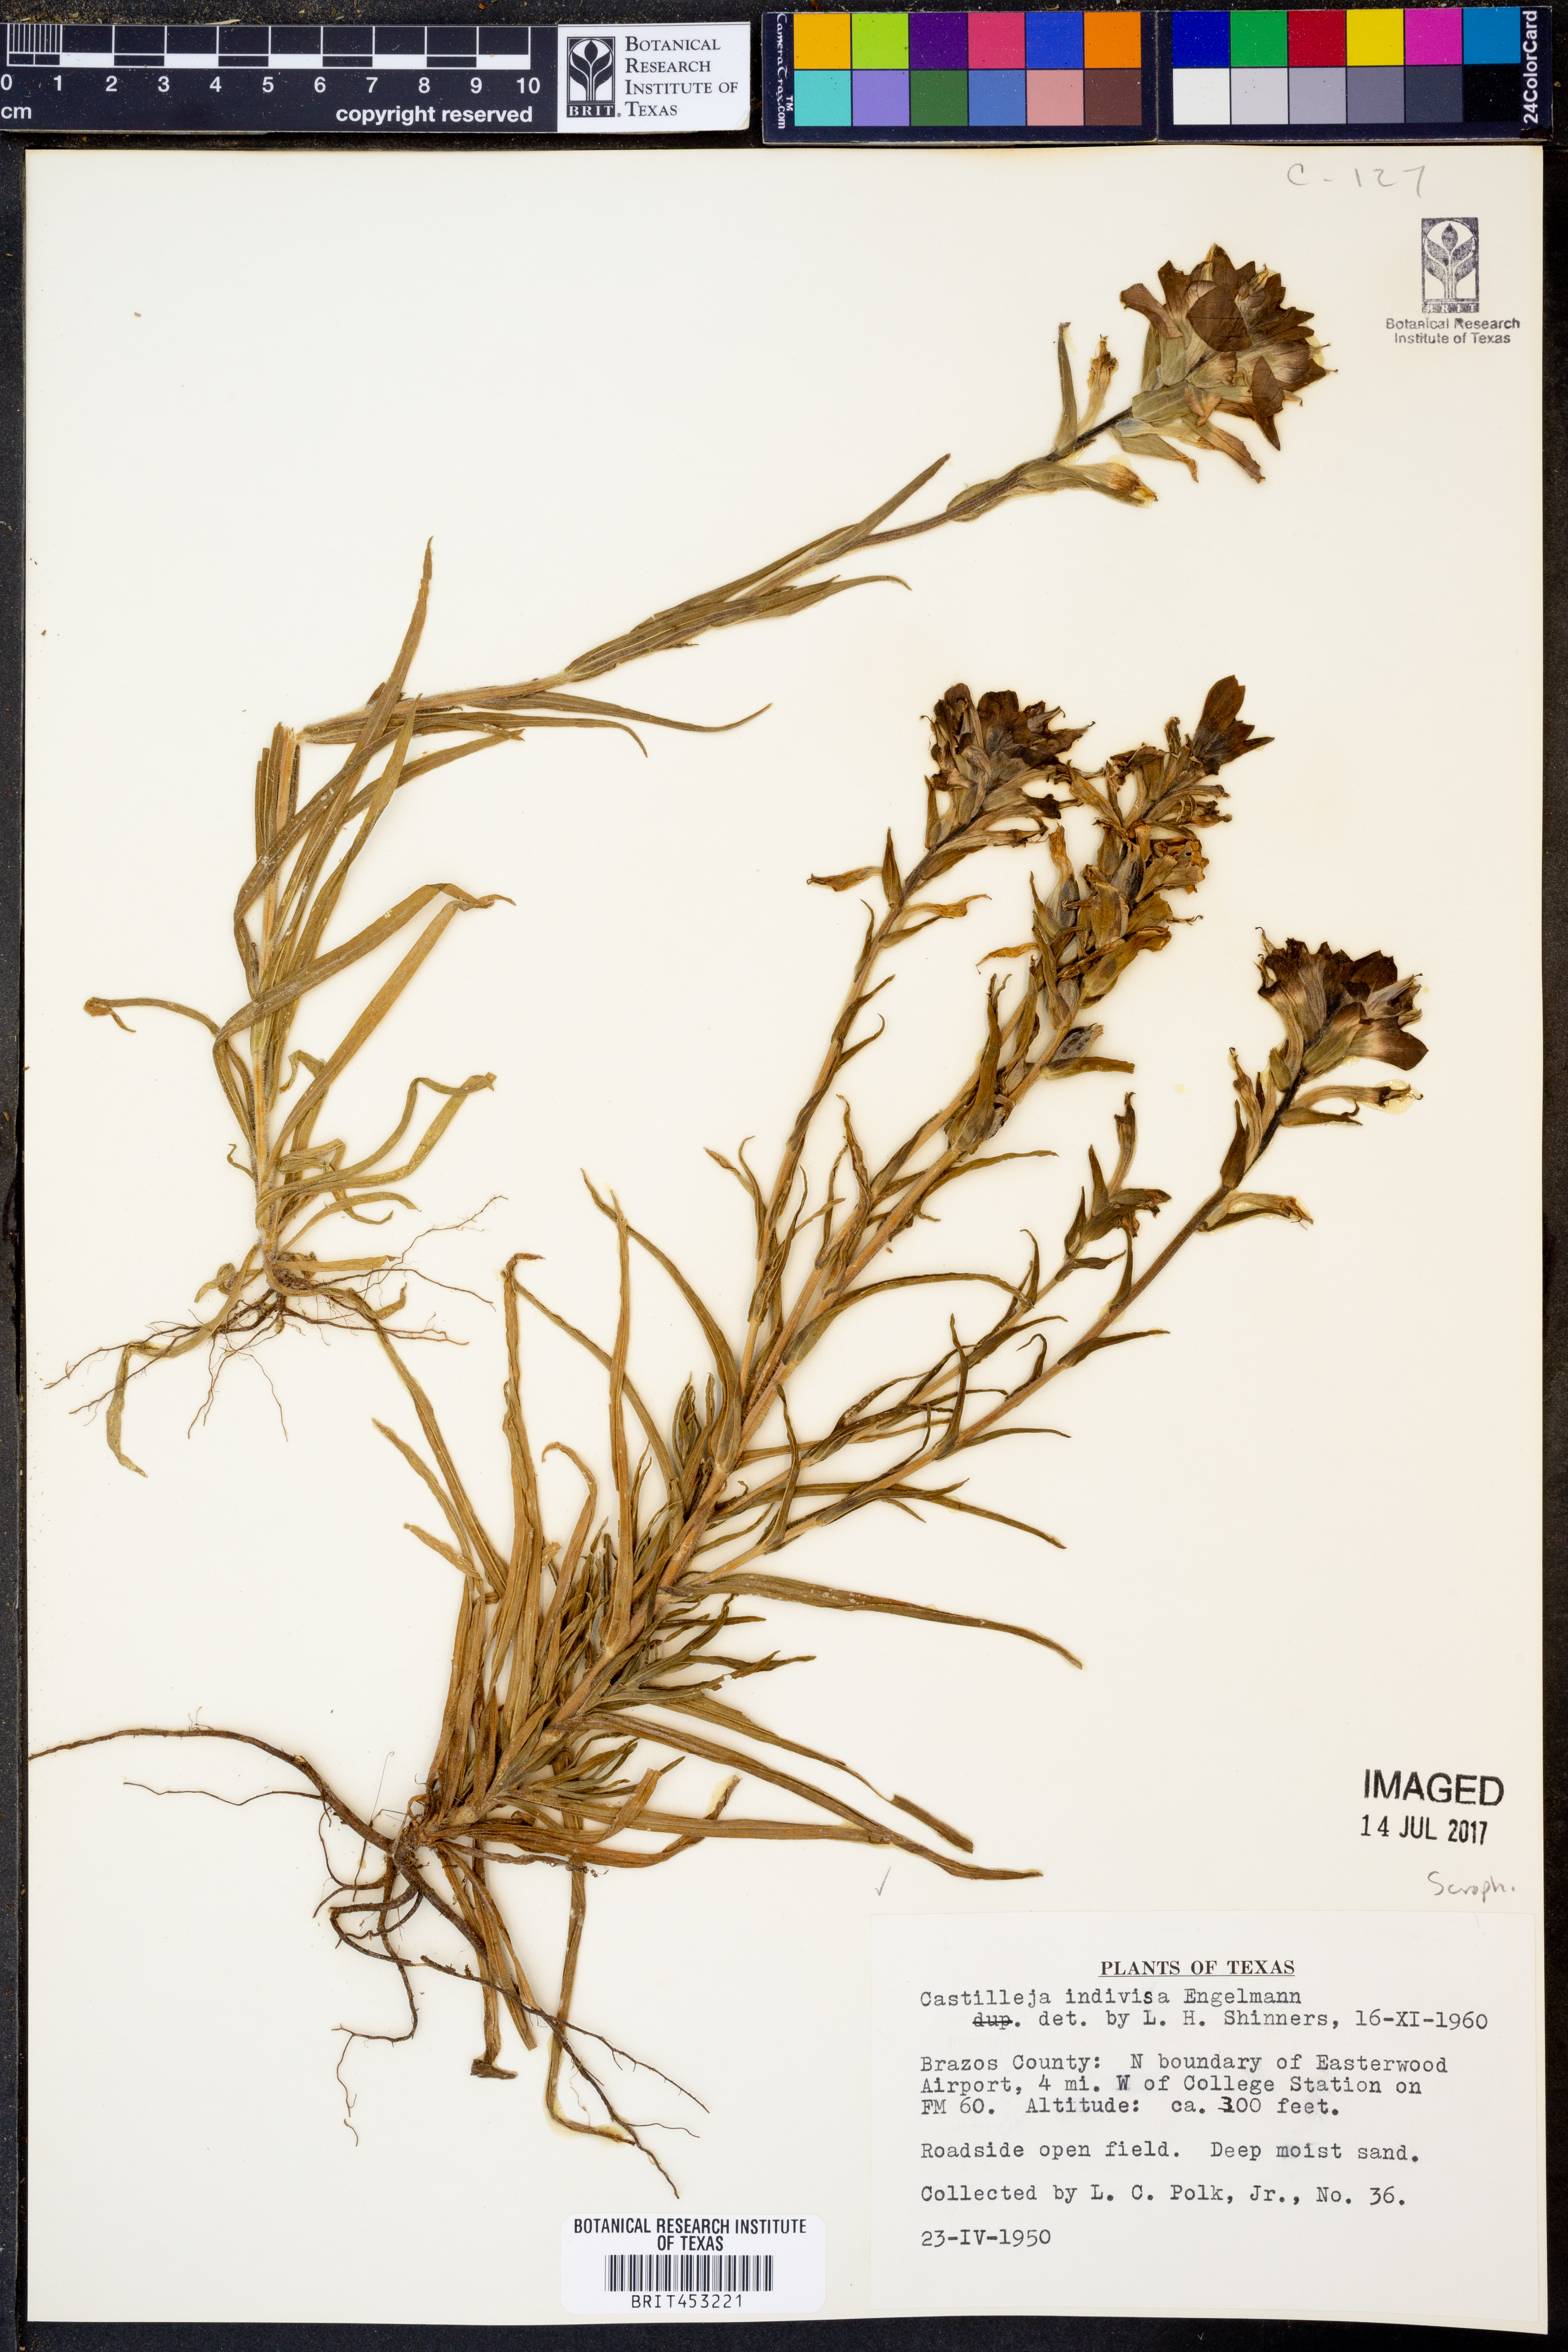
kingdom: Plantae
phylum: Tracheophyta
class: Magnoliopsida
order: Lamiales
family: Orobanchaceae
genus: Castilleja
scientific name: Castilleja indivisa
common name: Texas paintbrush
